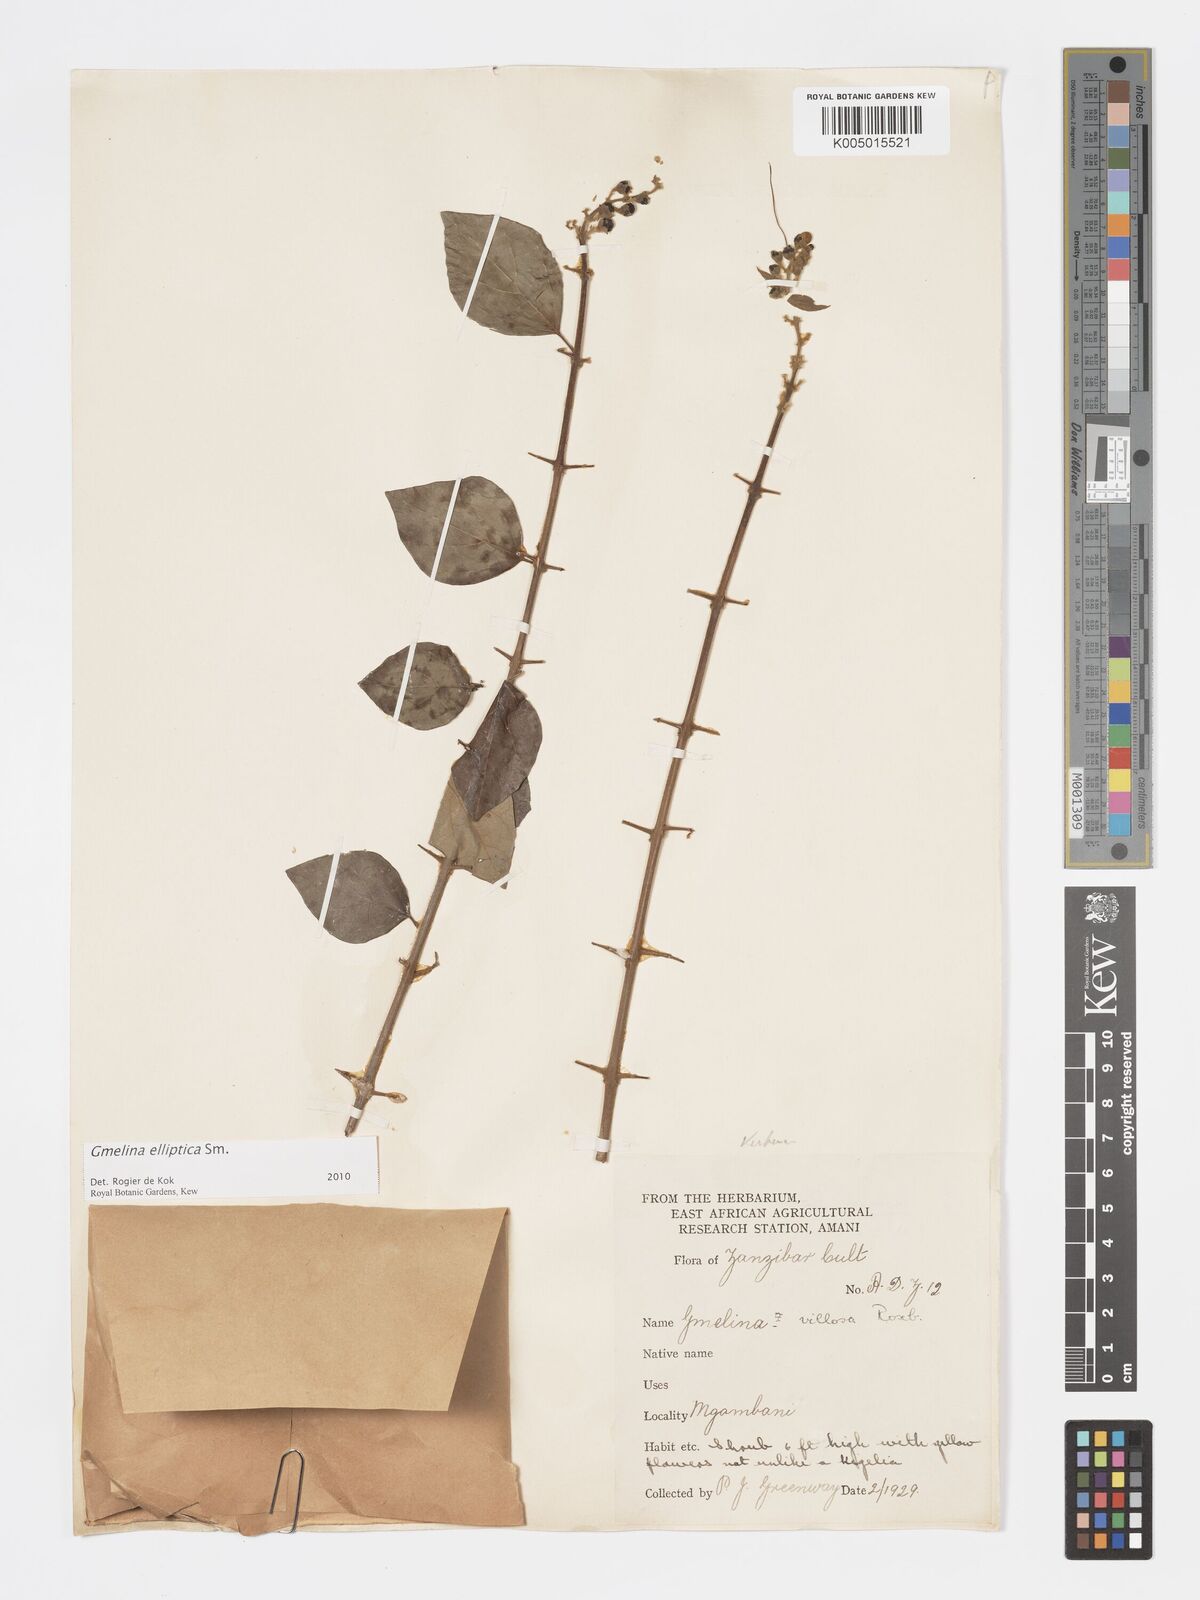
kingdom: Plantae
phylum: Tracheophyta
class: Magnoliopsida
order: Lamiales
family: Lamiaceae
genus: Gmelina
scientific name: Gmelina elliptica
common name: Badhara-bush
